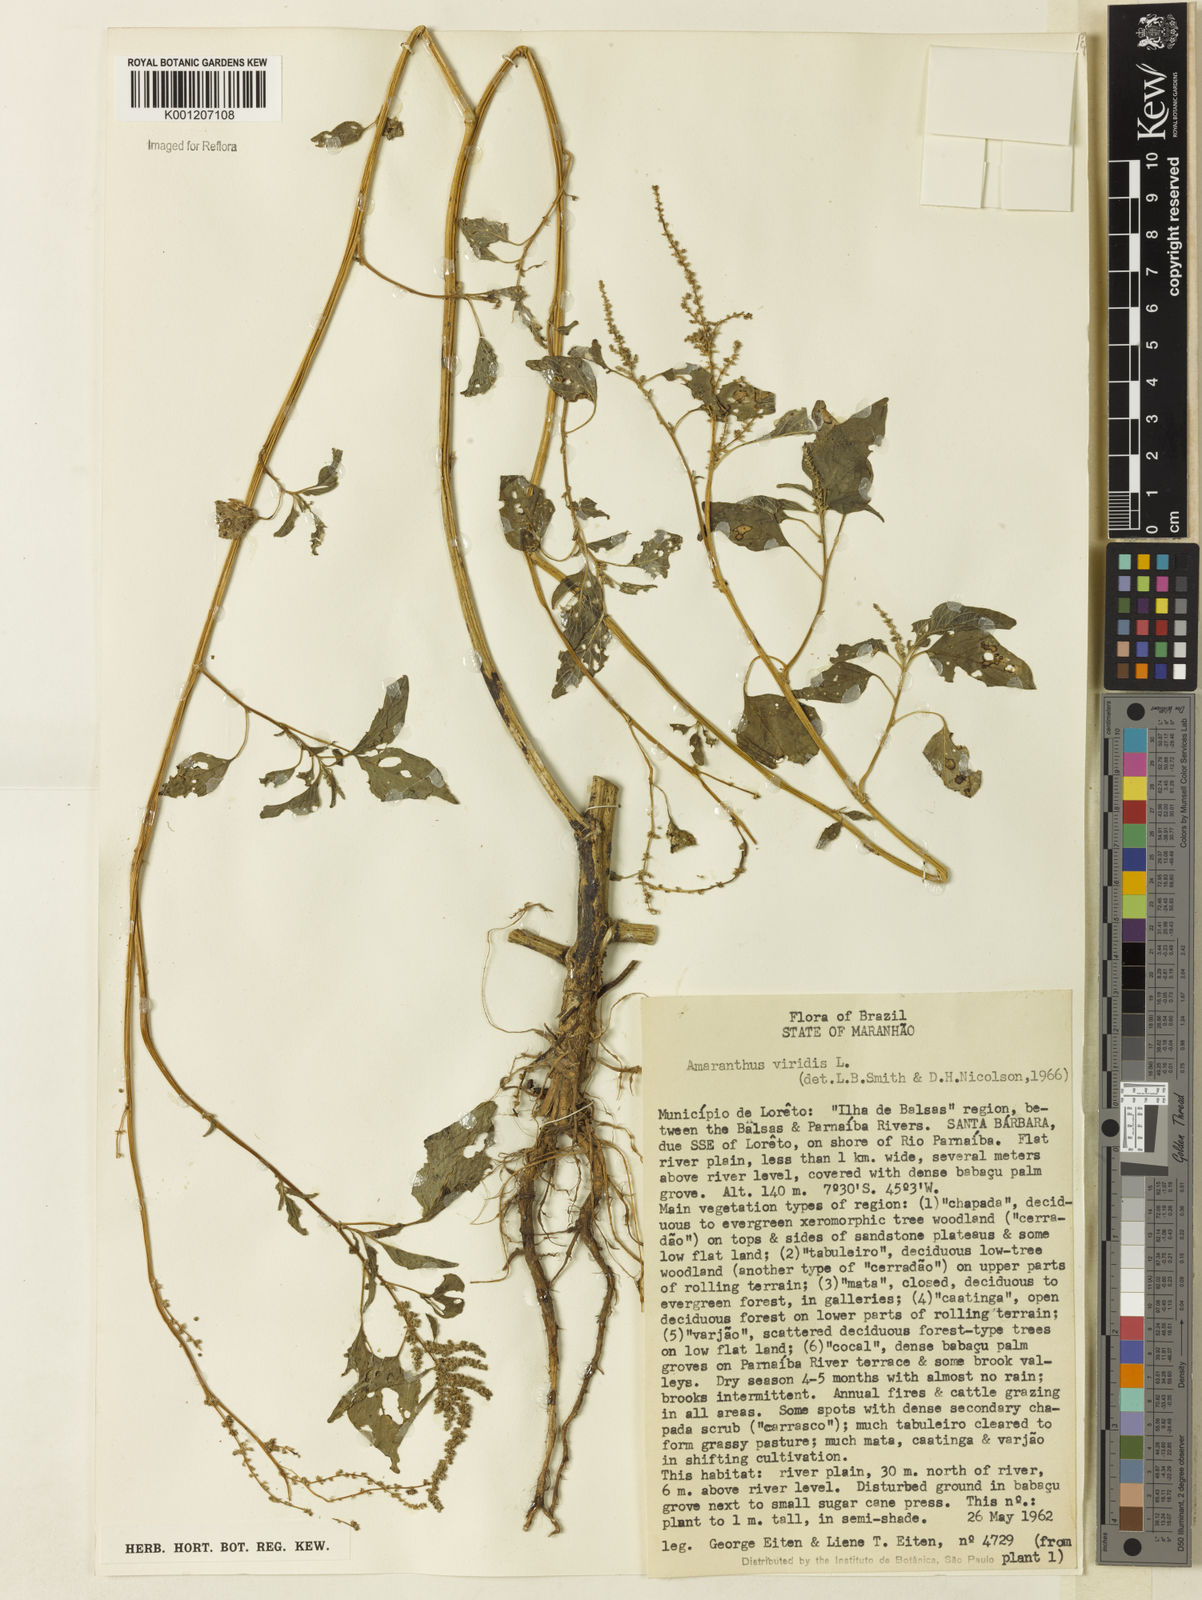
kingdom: Plantae
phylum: Tracheophyta
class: Magnoliopsida
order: Caryophyllales
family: Amaranthaceae
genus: Amaranthus
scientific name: Amaranthus viridis
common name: Slender amaranth
